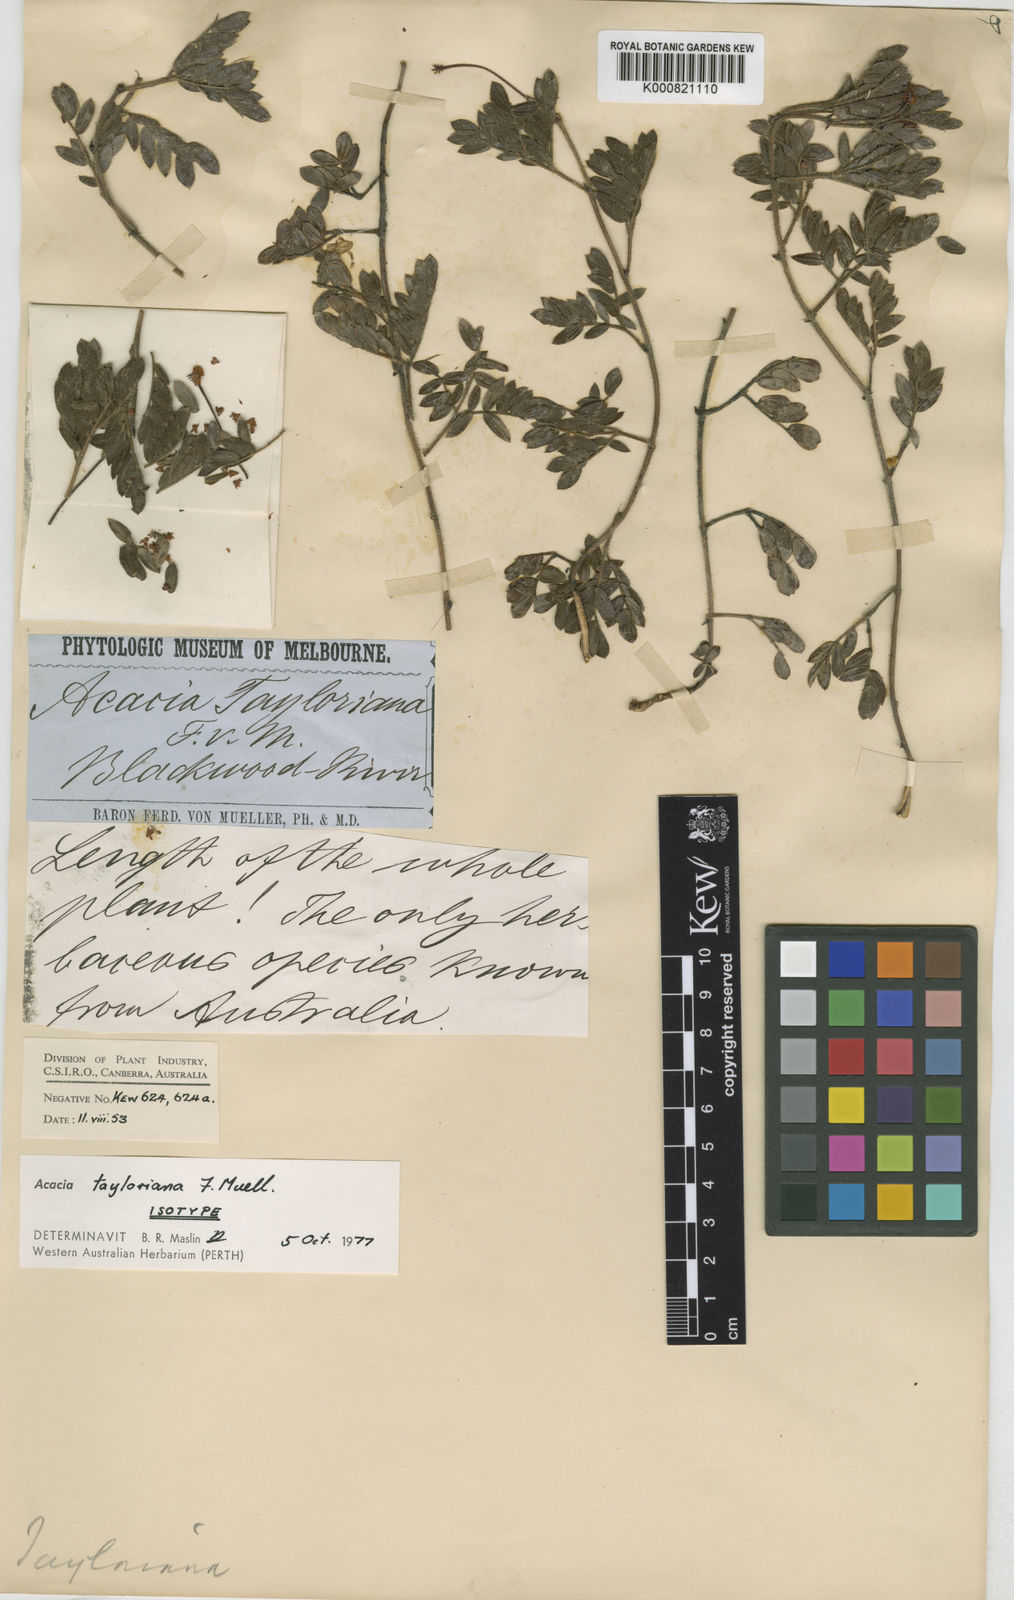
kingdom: Plantae
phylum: Tracheophyta
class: Magnoliopsida
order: Fabales
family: Fabaceae
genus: Acacia
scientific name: Acacia tayloriana
